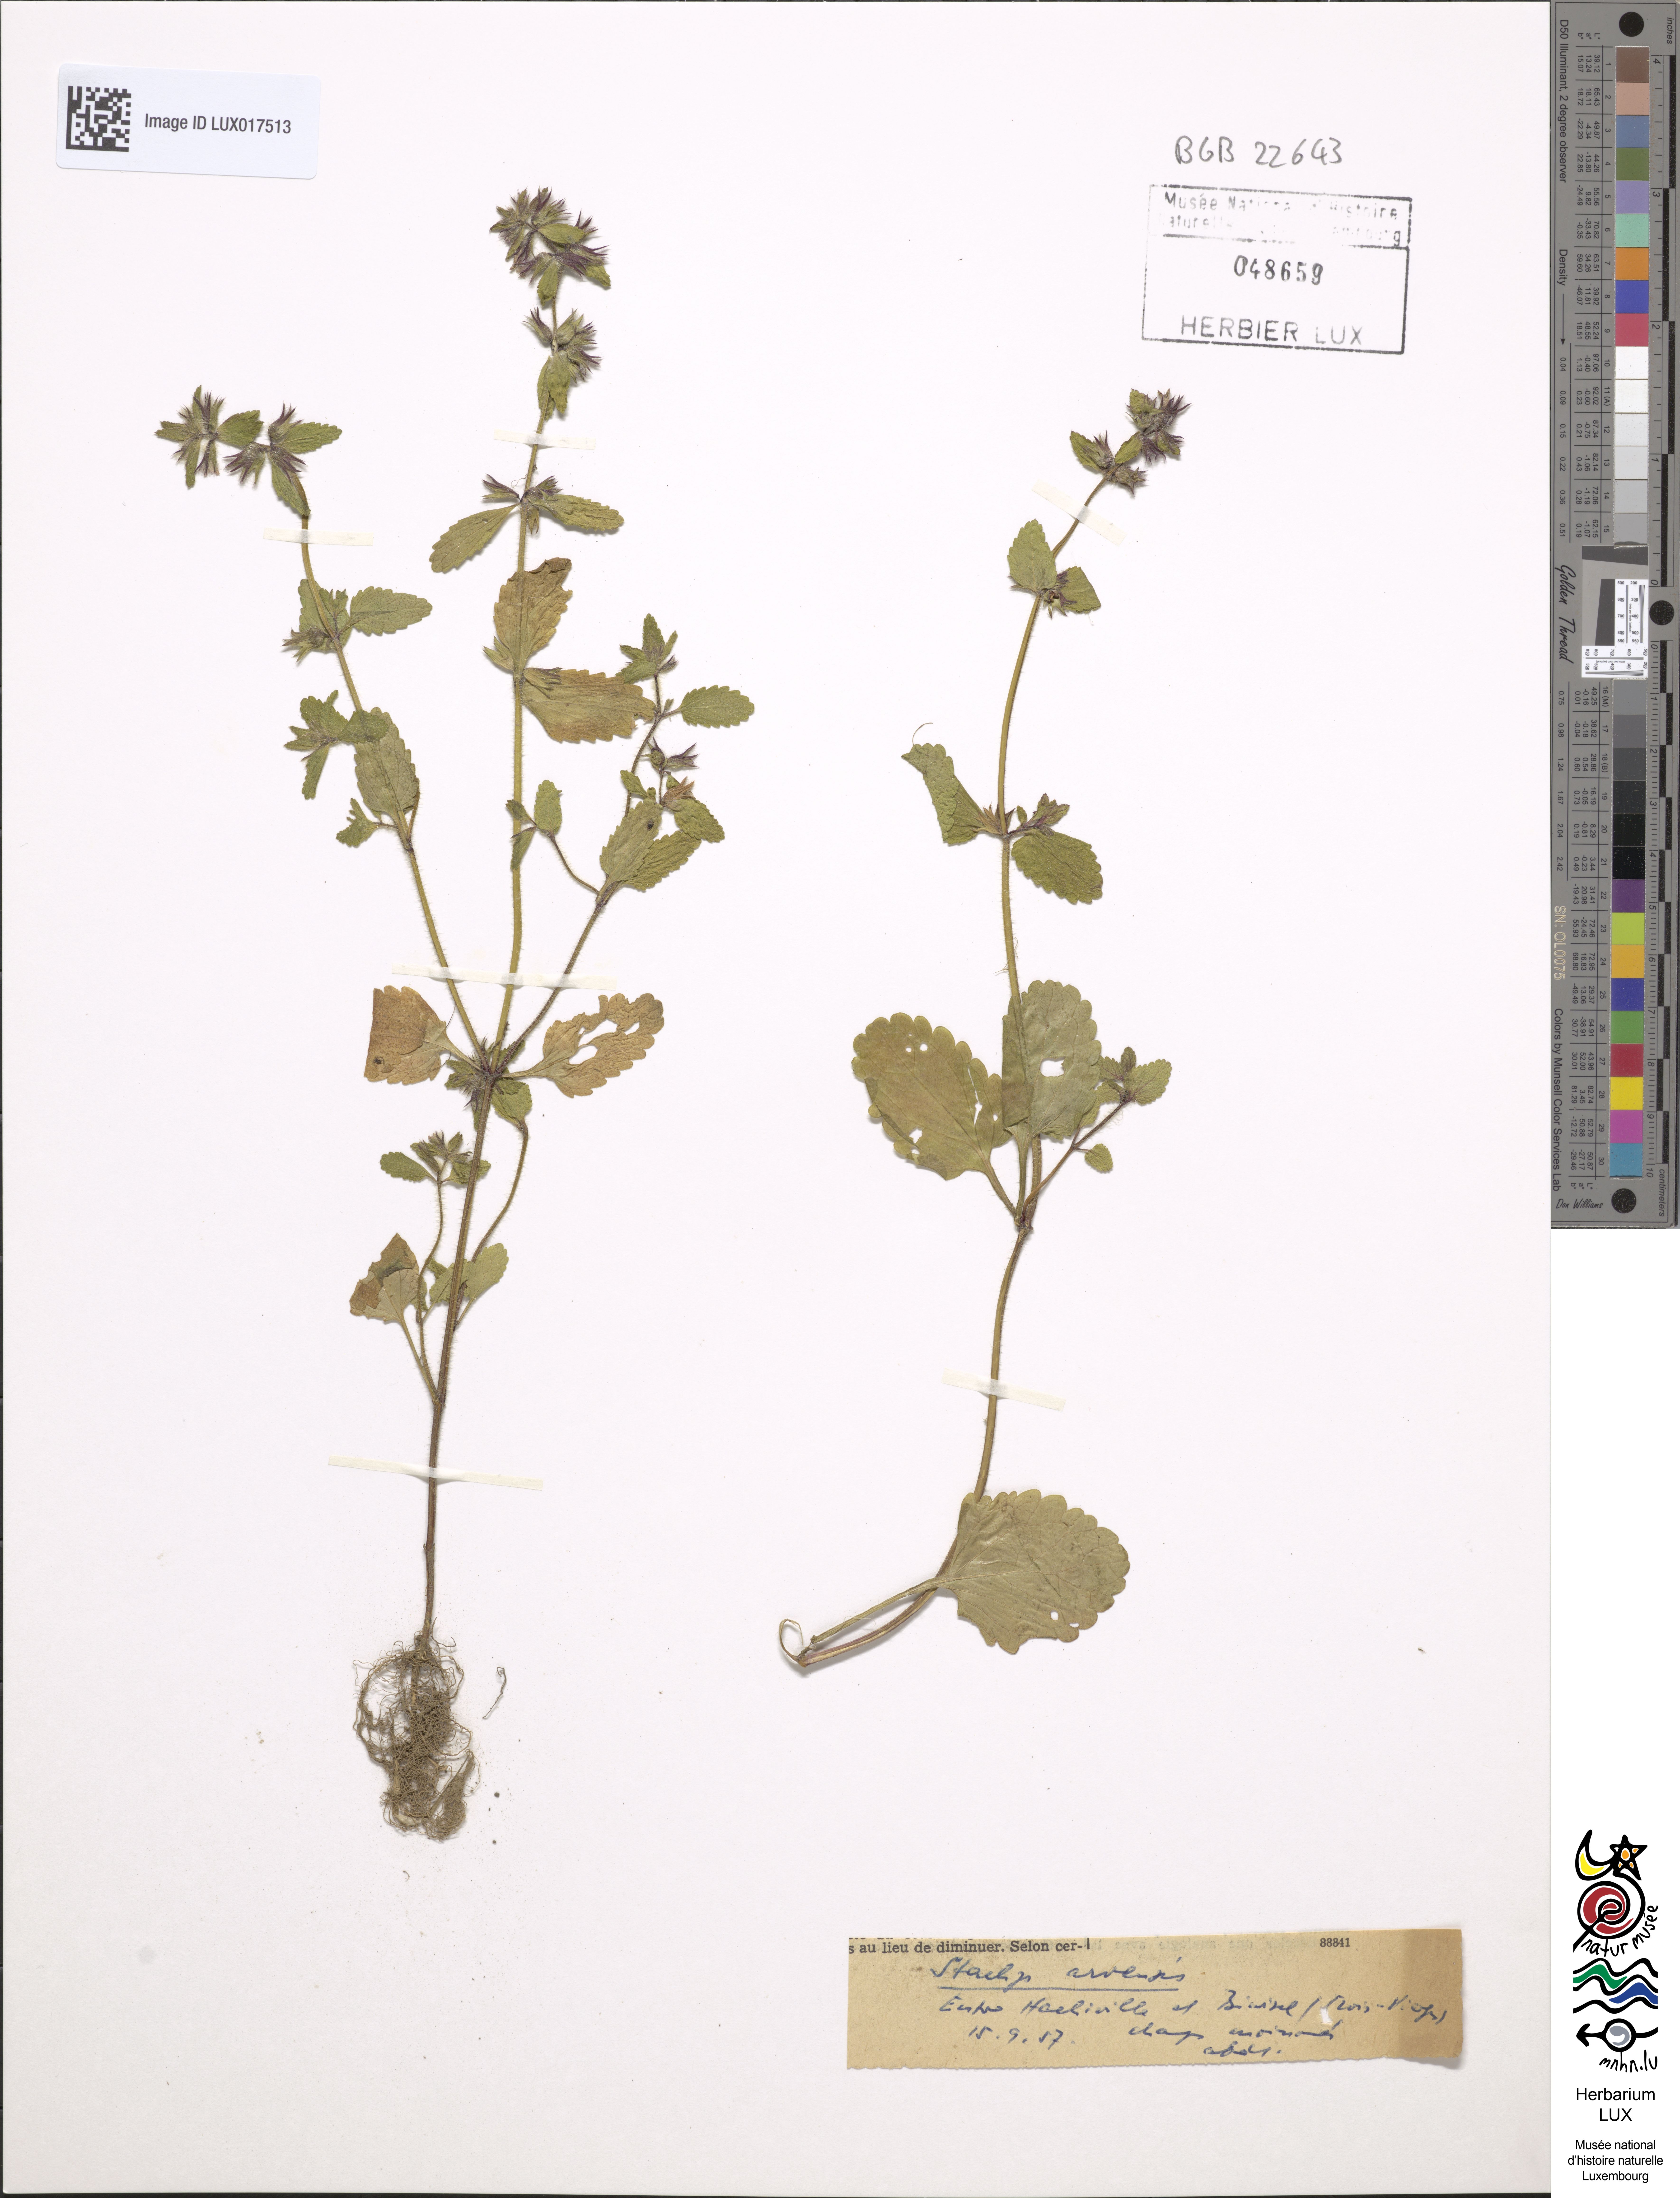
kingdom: Plantae
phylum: Tracheophyta
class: Magnoliopsida
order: Lamiales
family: Lamiaceae
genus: Stachys
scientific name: Stachys arvensis
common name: Field woundwort
